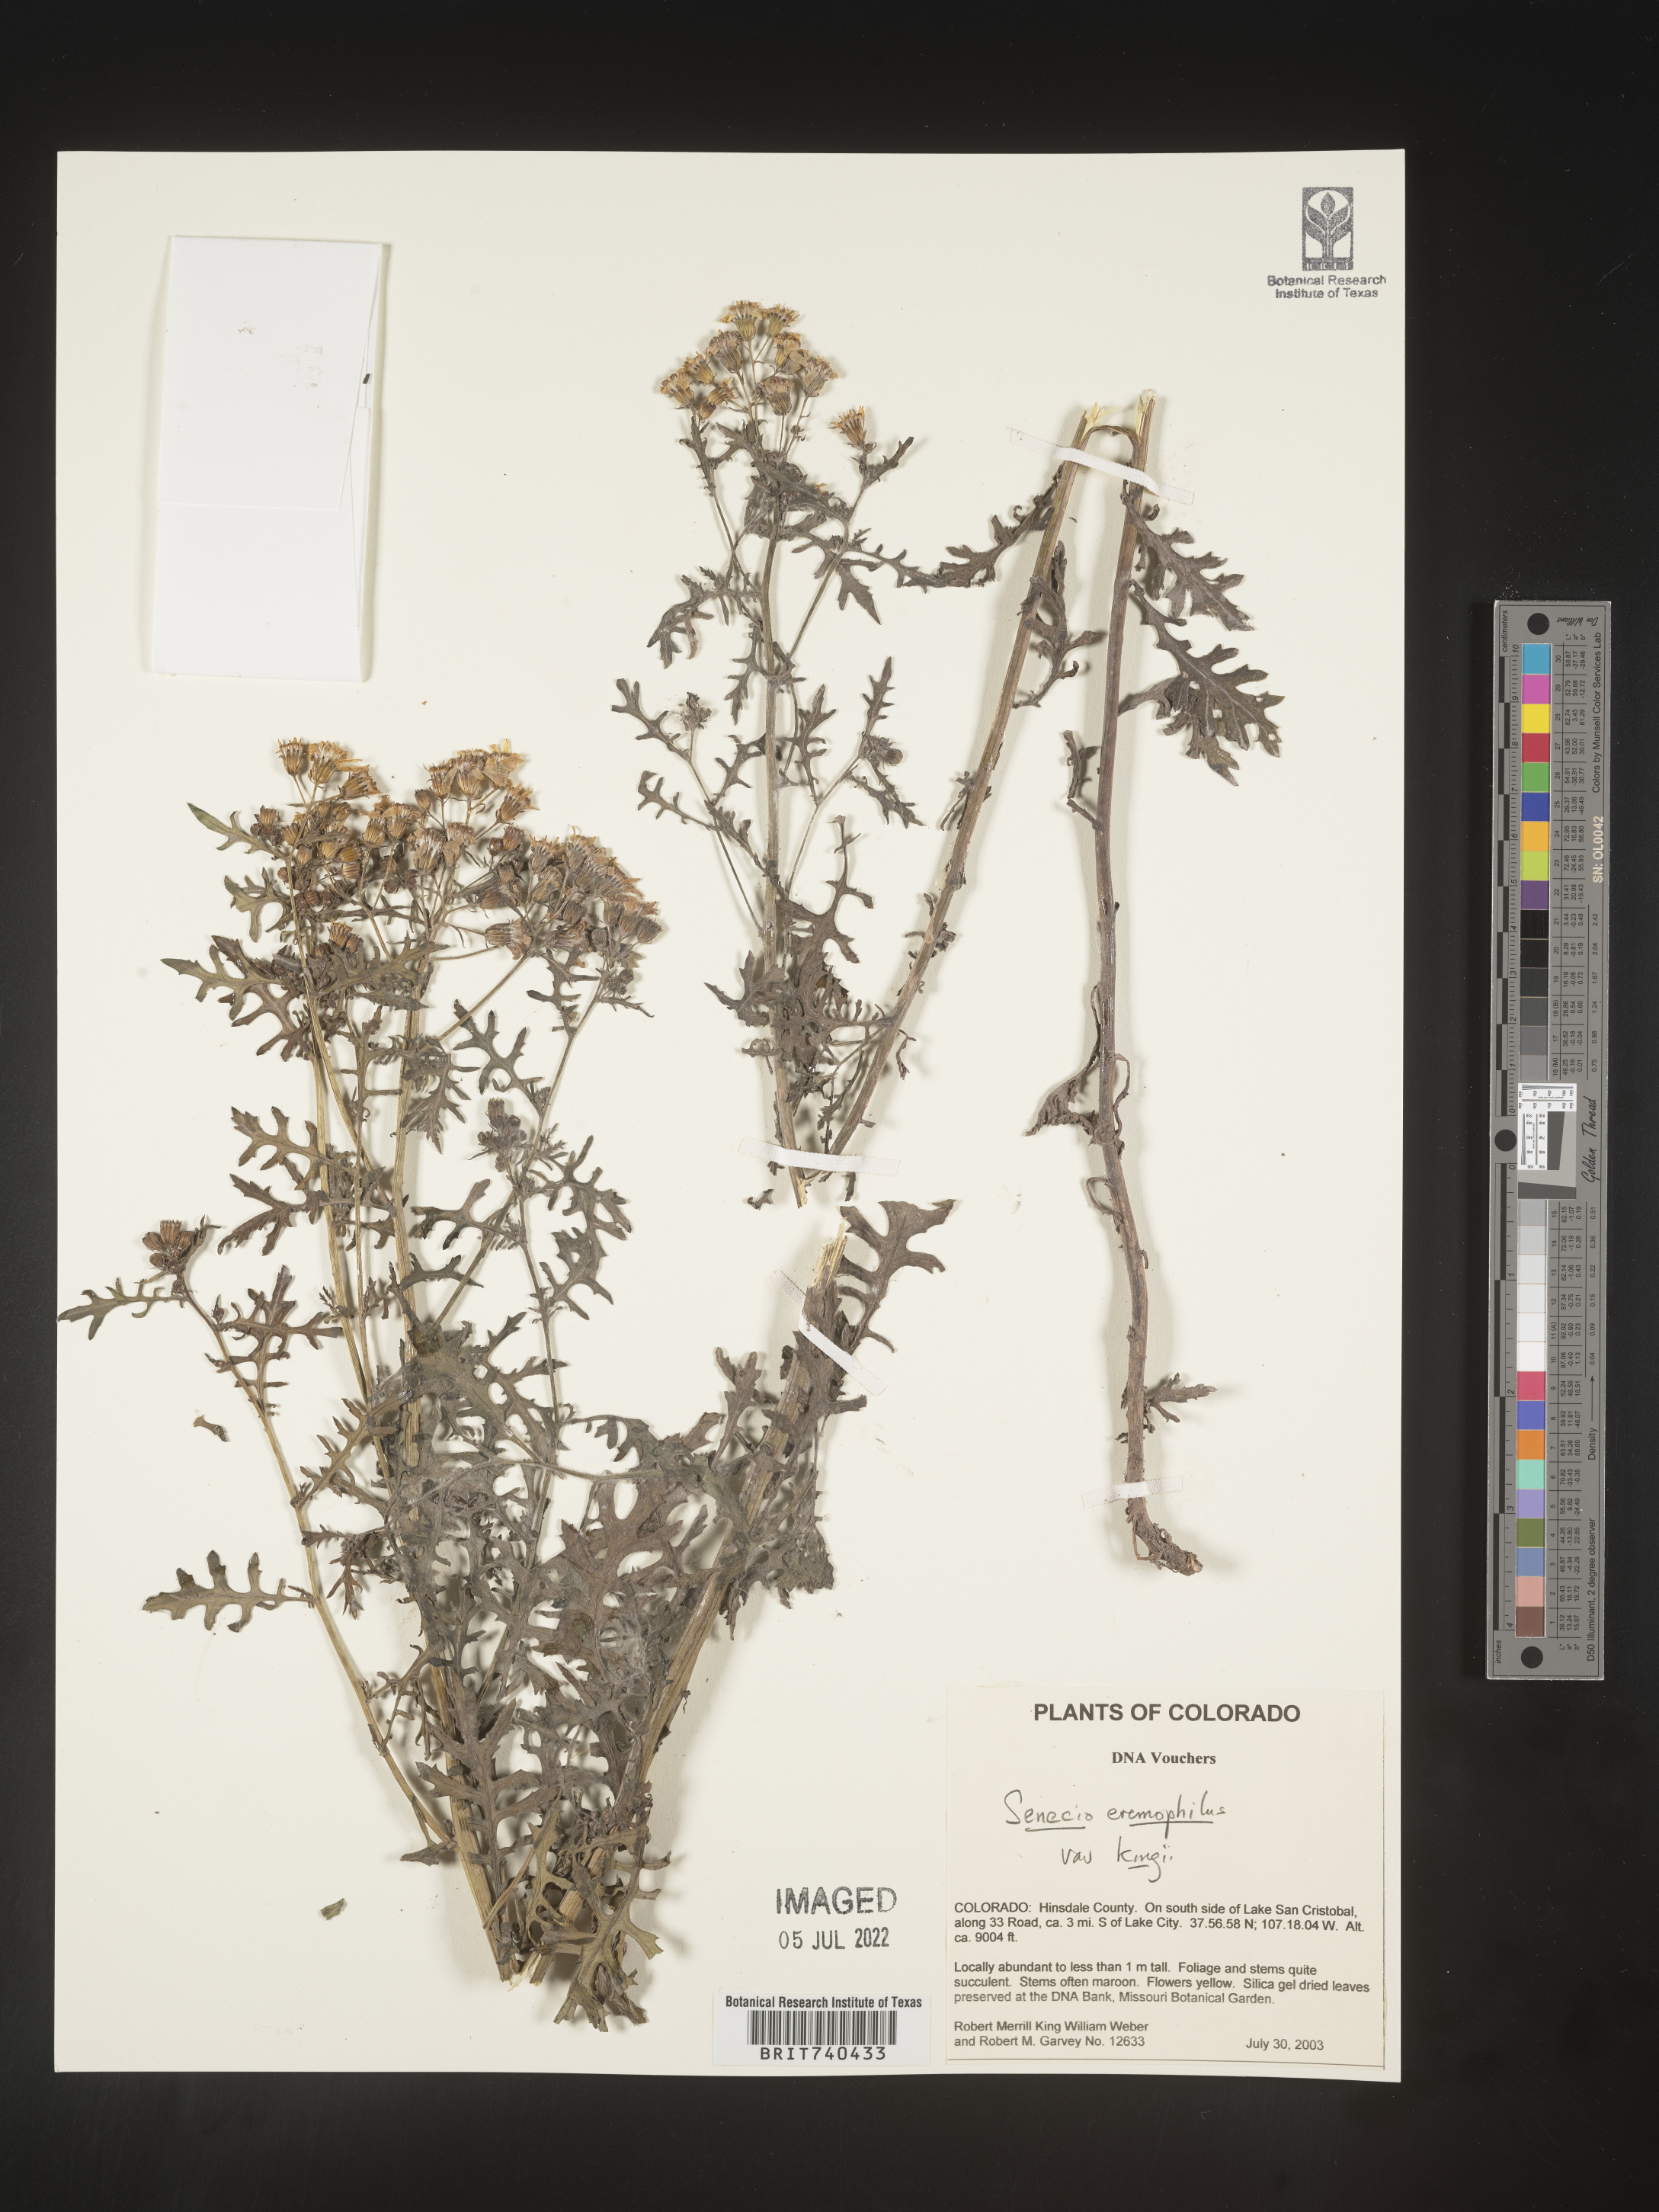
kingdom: Plantae
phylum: Tracheophyta
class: Magnoliopsida
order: Asterales
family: Asteraceae
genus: Senecio
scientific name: Senecio eremophilus
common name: Desert ragwort
